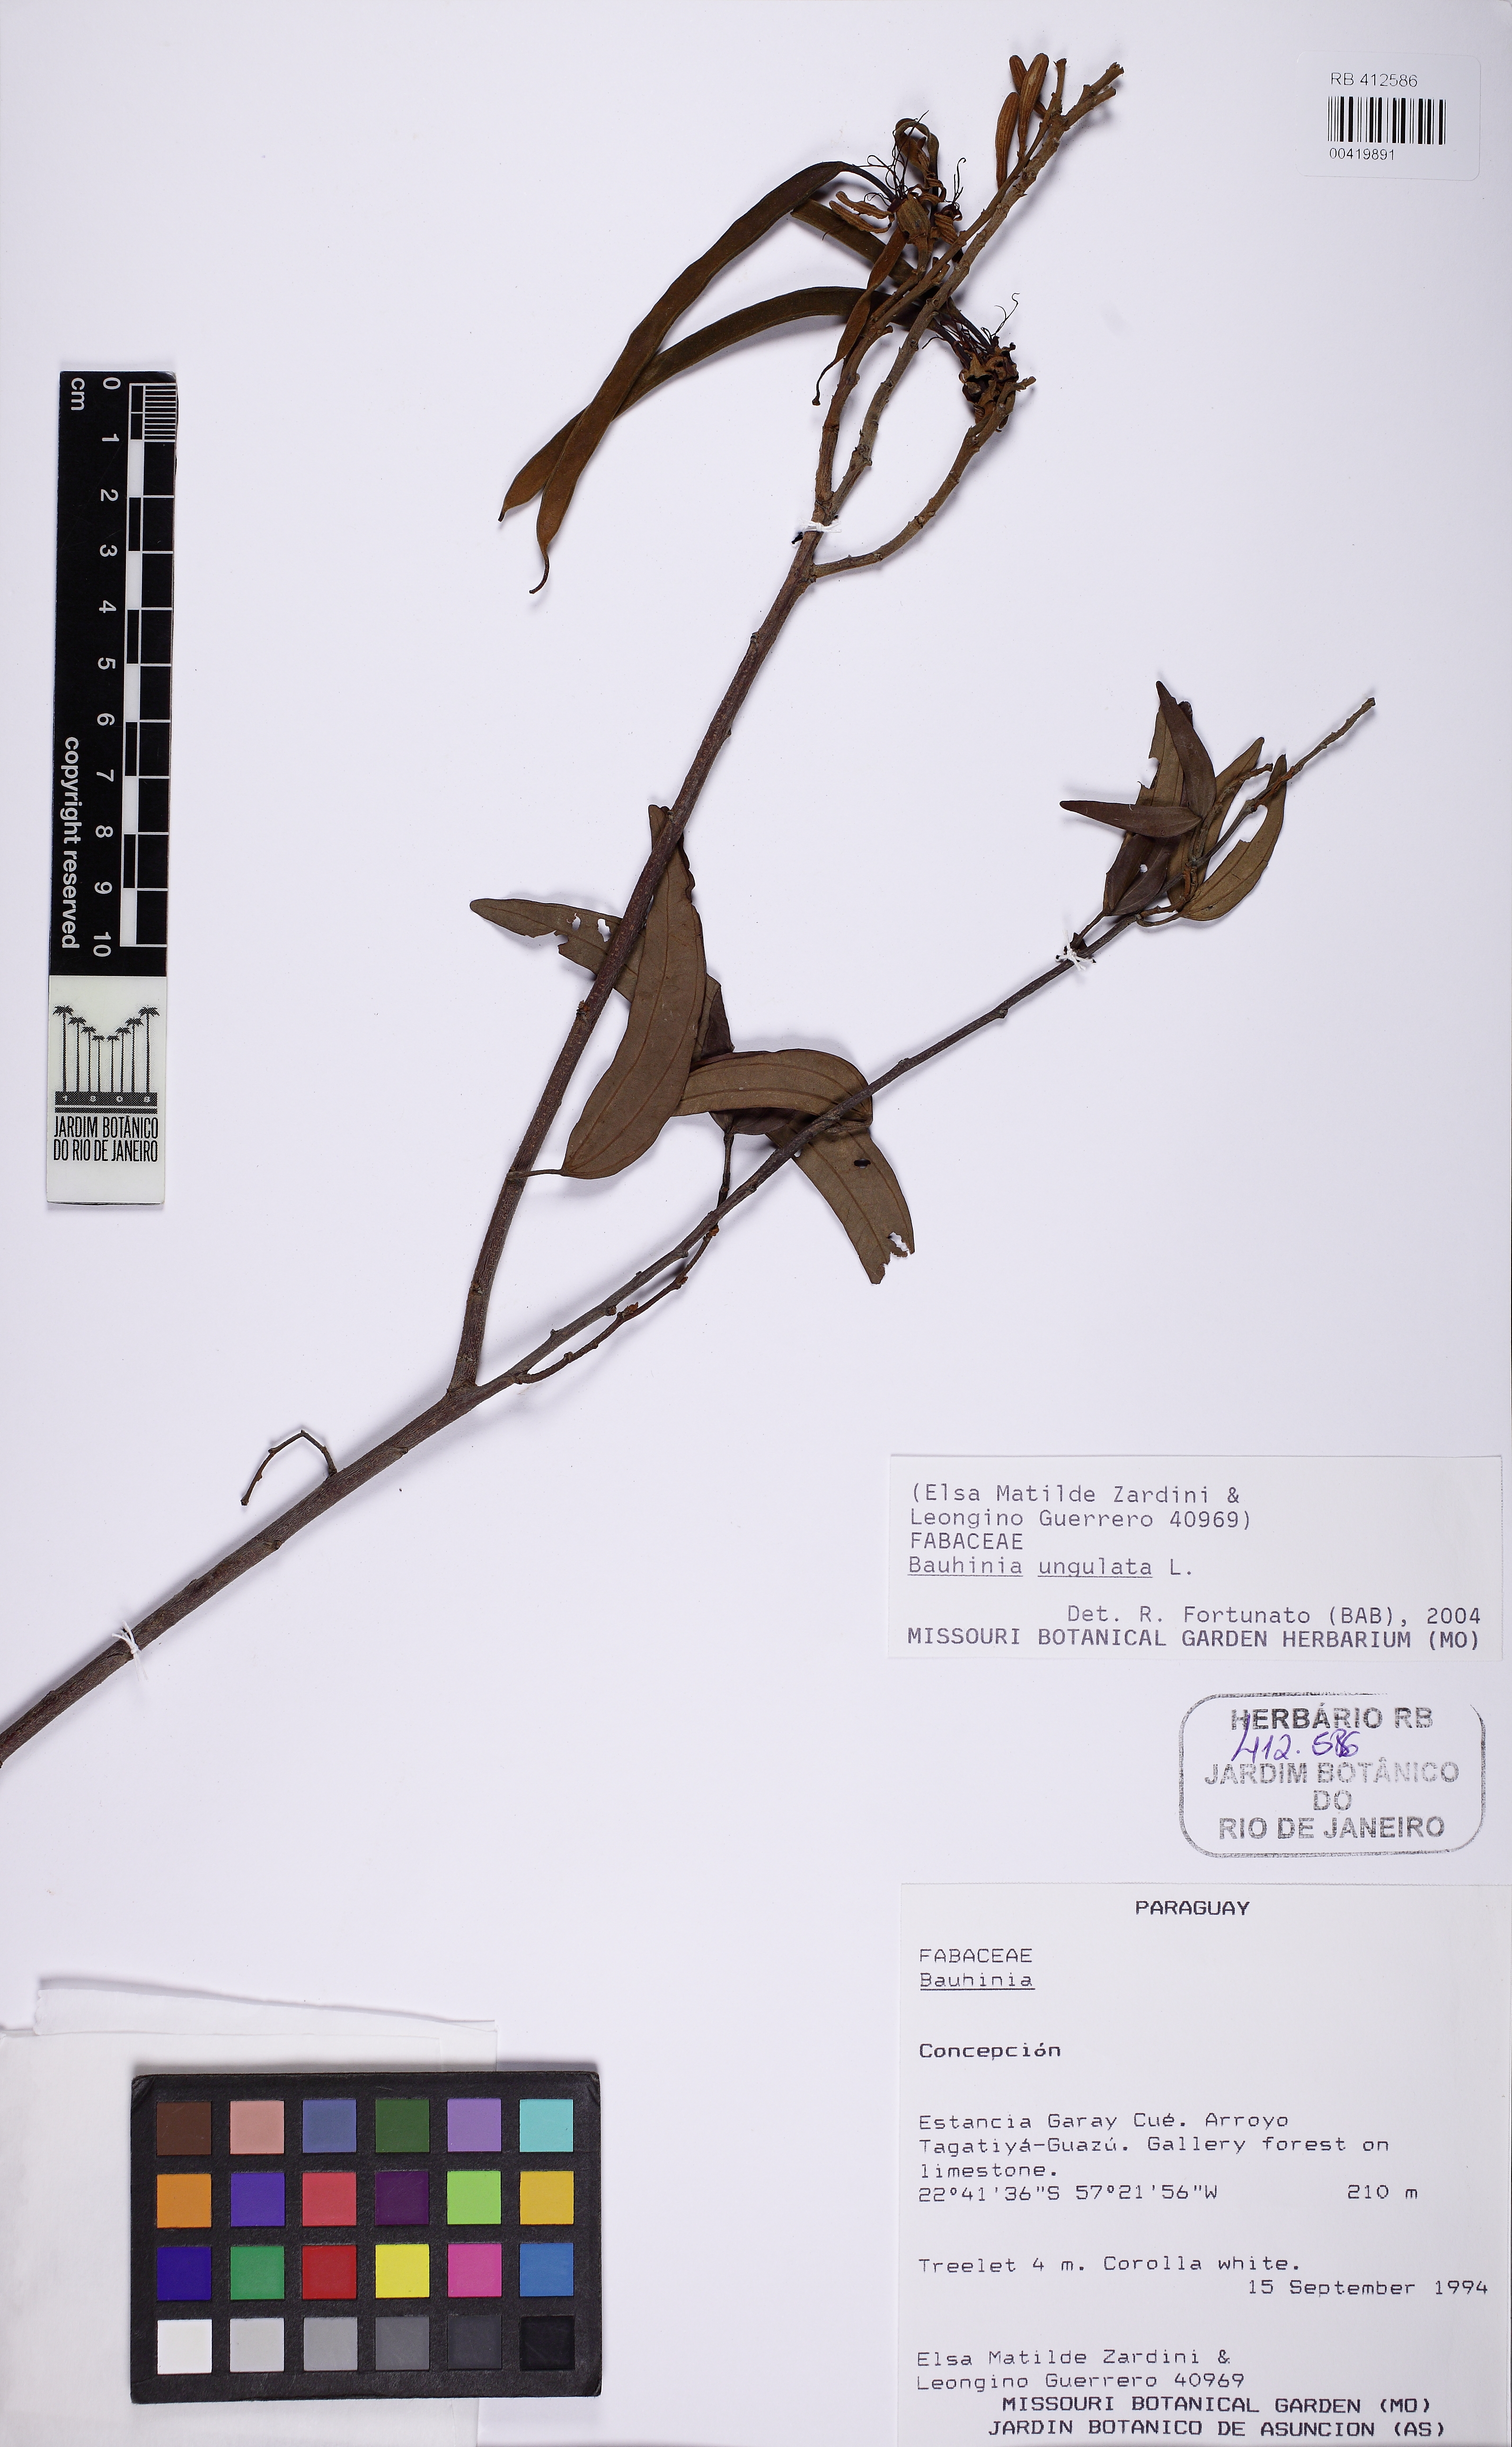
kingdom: Plantae
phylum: Tracheophyta
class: Magnoliopsida
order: Fabales
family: Fabaceae
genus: Bauhinia
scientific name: Bauhinia ungulata
